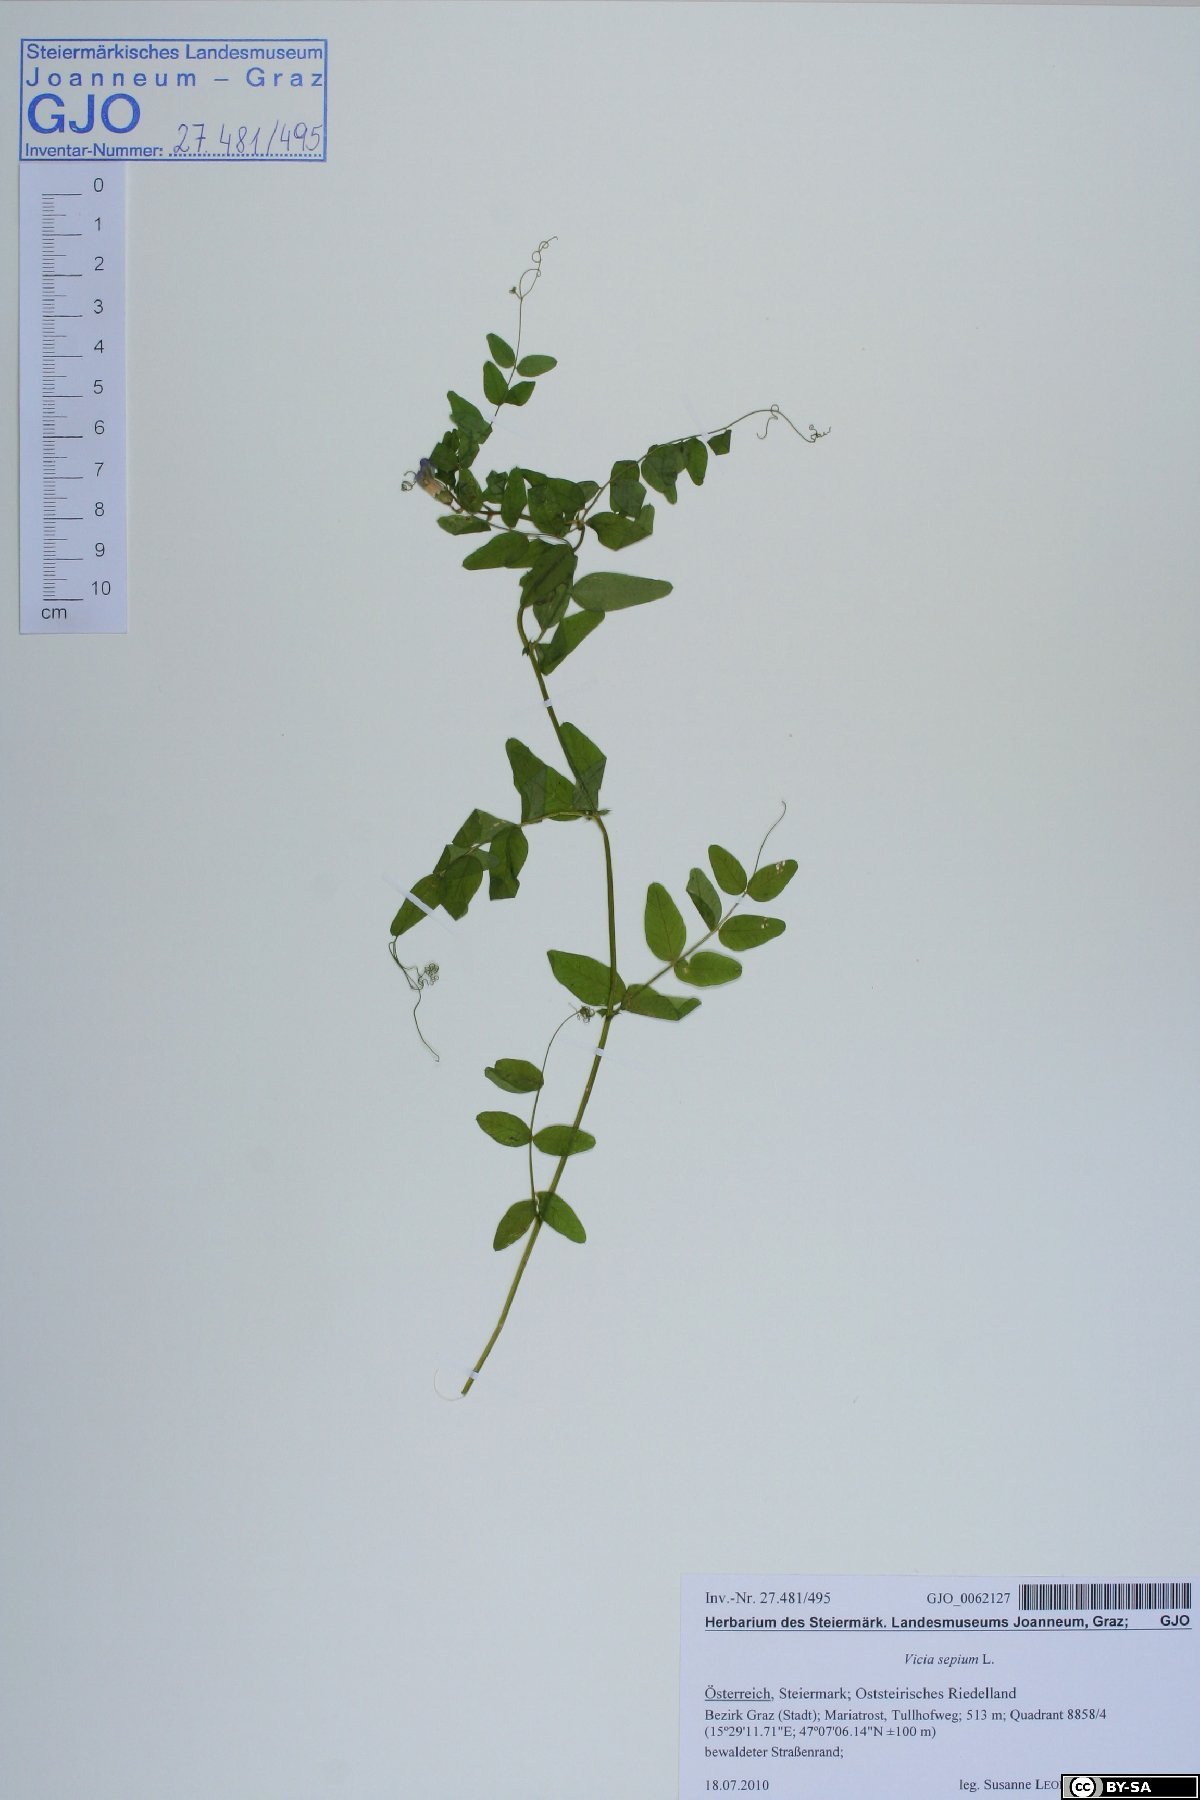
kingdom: Plantae
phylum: Tracheophyta
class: Magnoliopsida
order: Fabales
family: Fabaceae
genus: Vicia
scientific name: Vicia sepium
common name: Bush vetch
